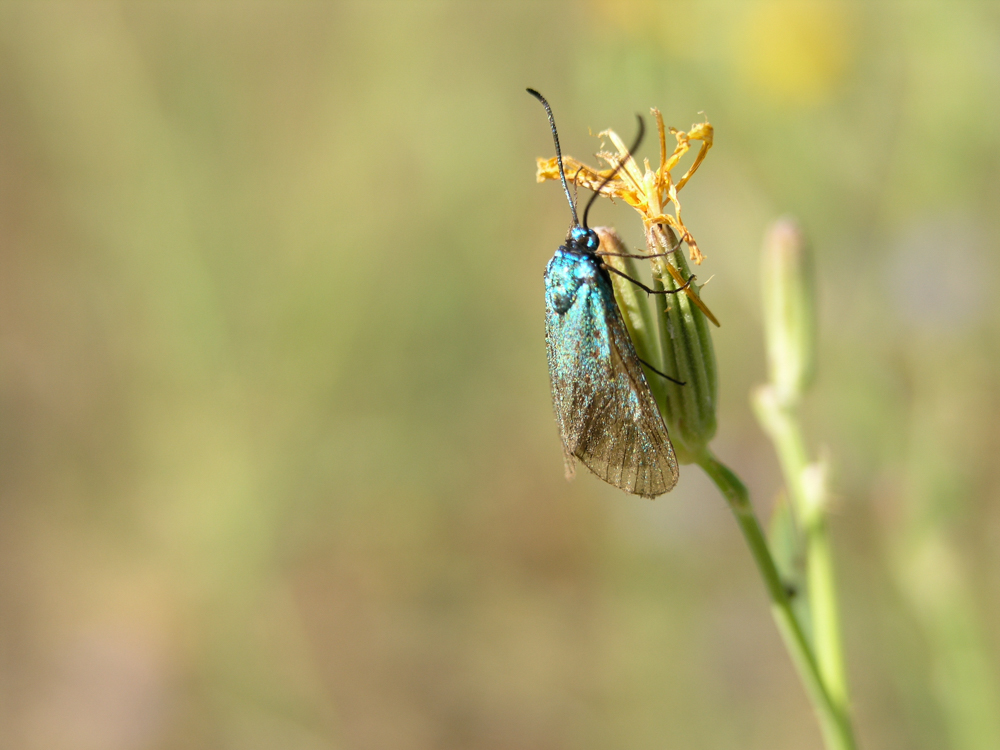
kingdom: Animalia
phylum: Arthropoda
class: Insecta
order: Lepidoptera
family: Zygaenidae
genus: Adscita
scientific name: Adscita statices
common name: Forester
